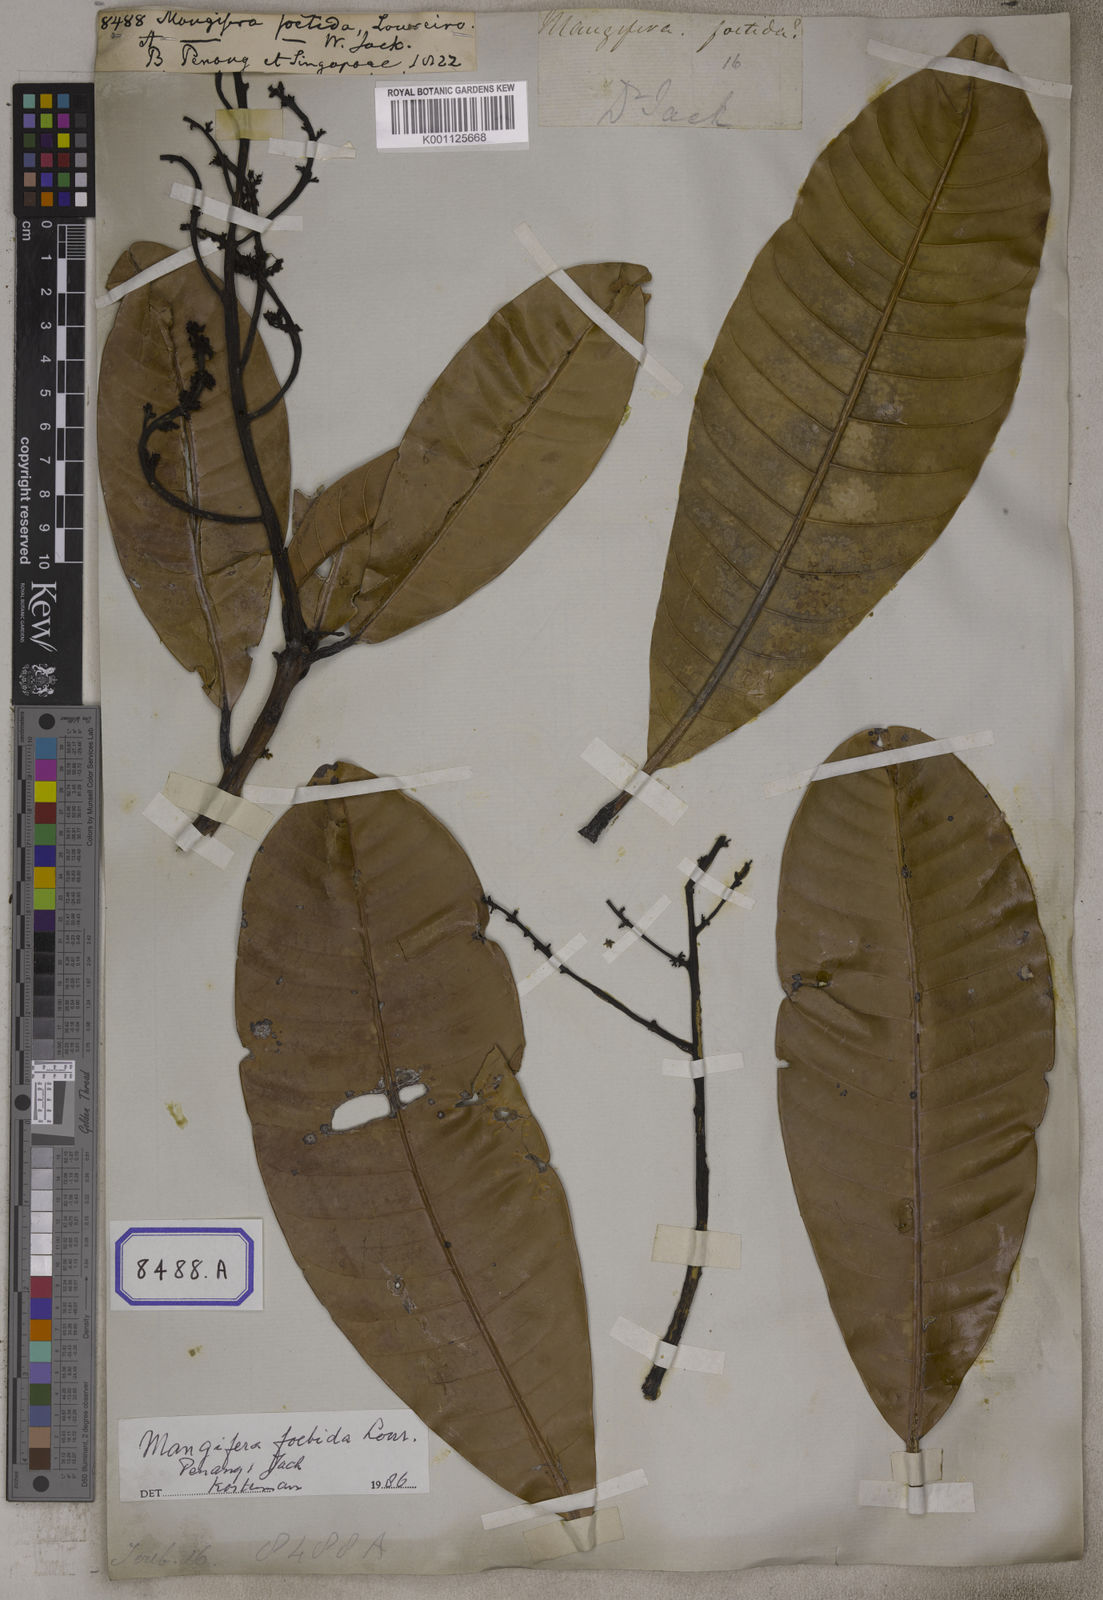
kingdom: Plantae
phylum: Tracheophyta
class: Magnoliopsida
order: Sapindales
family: Anacardiaceae
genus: Mangifera
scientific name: Mangifera foetida
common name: Horse mango
